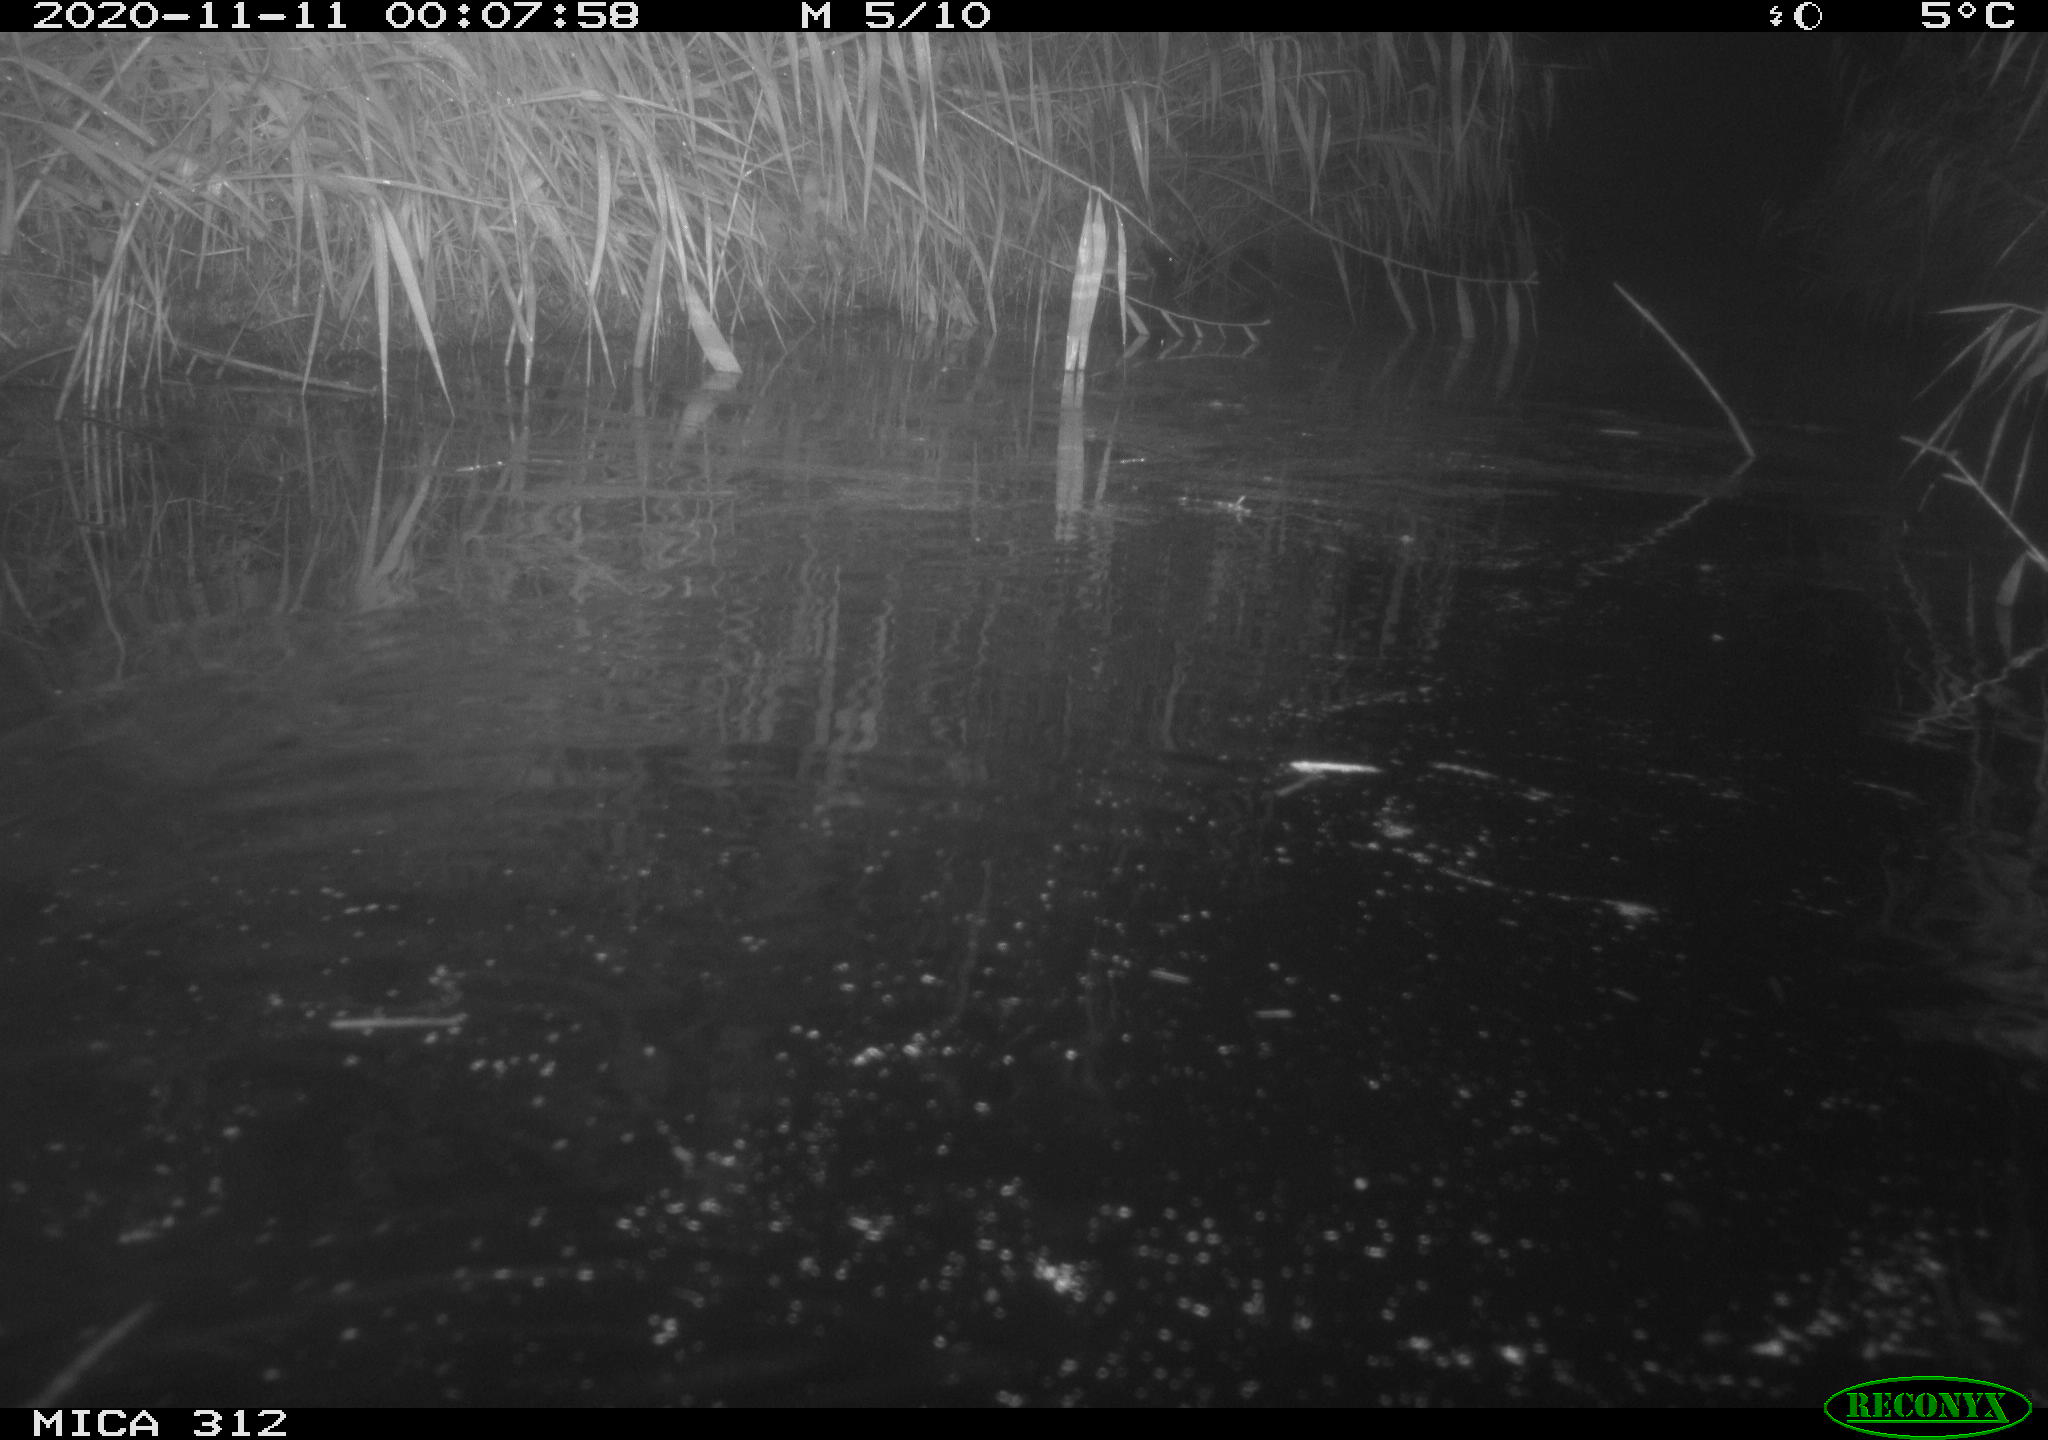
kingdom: Animalia
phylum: Chordata
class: Mammalia
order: Rodentia
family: Muridae
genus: Rattus
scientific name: Rattus norvegicus
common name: Brown rat
